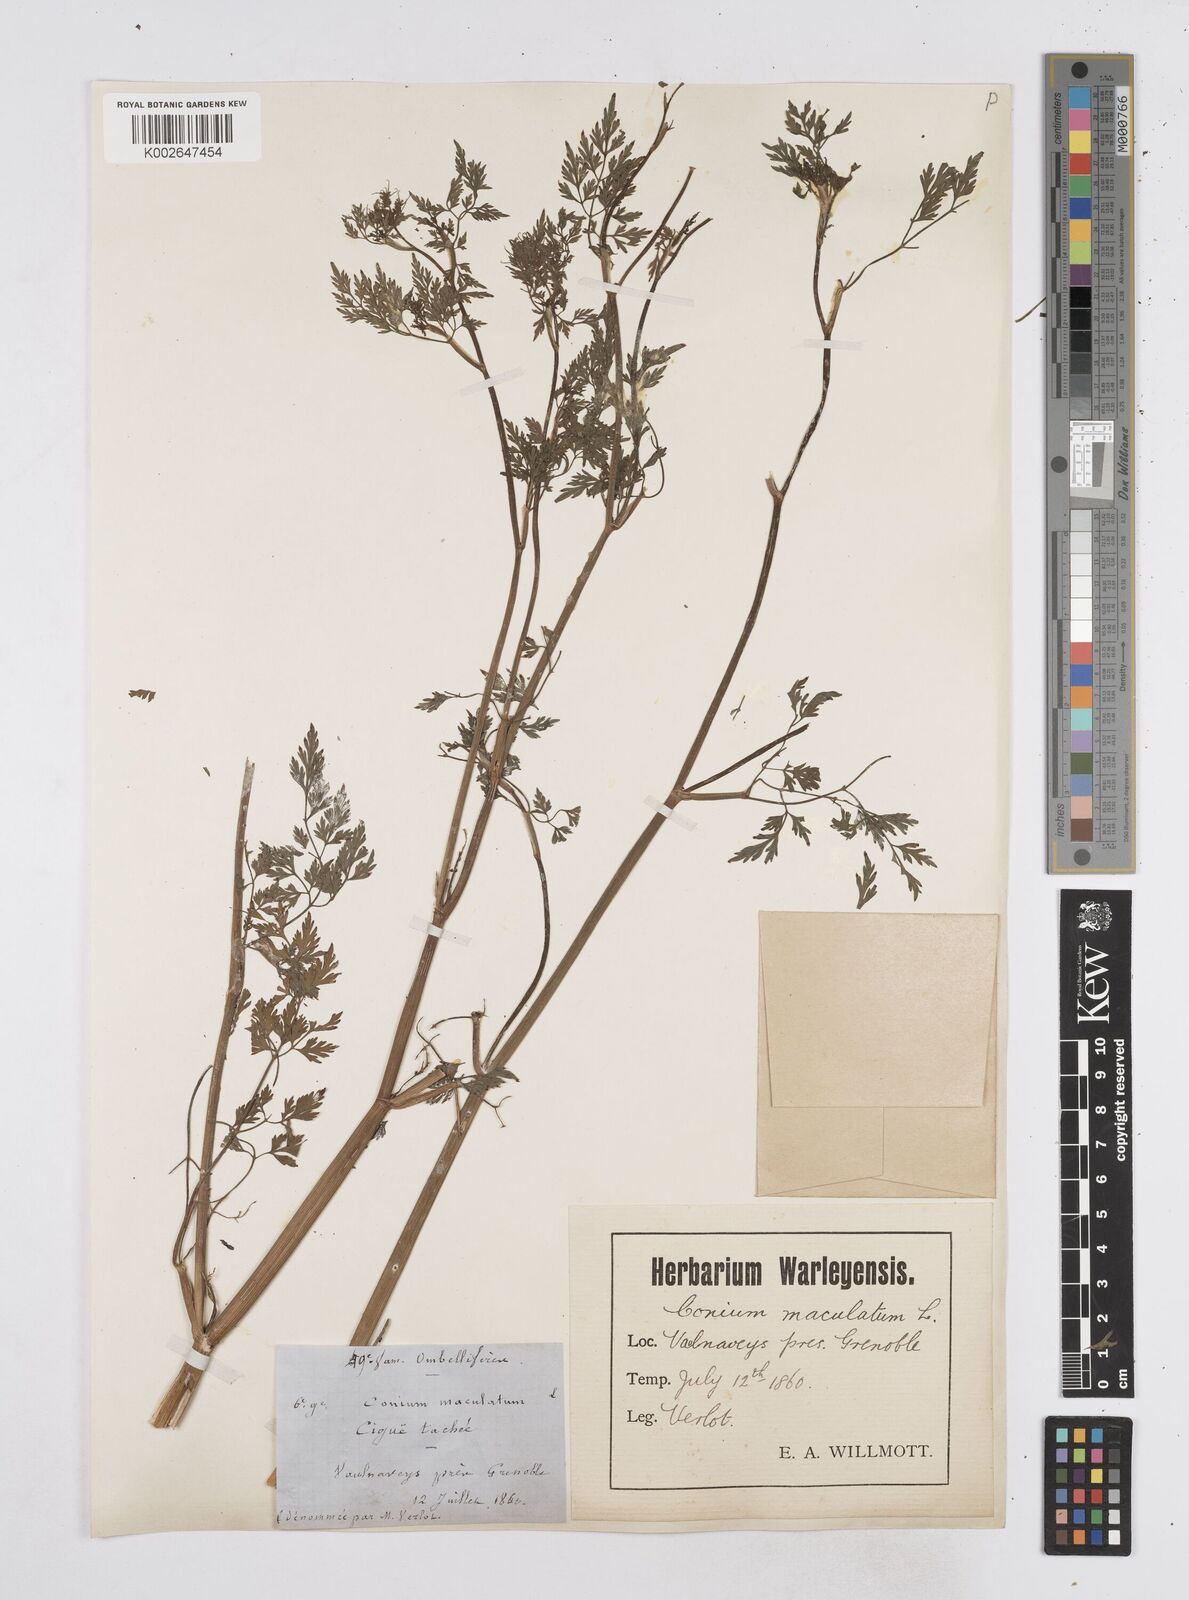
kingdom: Plantae
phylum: Tracheophyta
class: Magnoliopsida
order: Apiales
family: Apiaceae
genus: Conium
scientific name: Conium maculatum
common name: Hemlock
